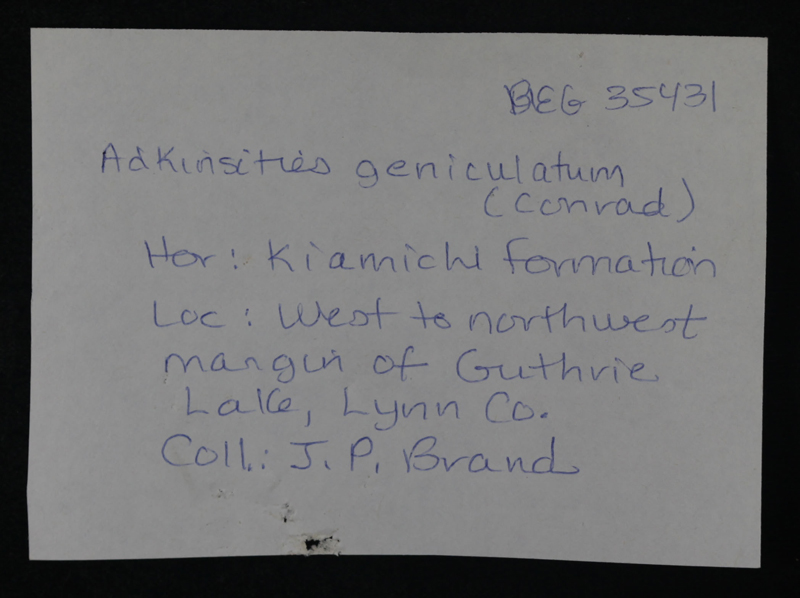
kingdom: Animalia
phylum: Mollusca
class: Cephalopoda
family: Brancoceratidae
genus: Oxytropidoceras
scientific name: Oxytropidoceras
